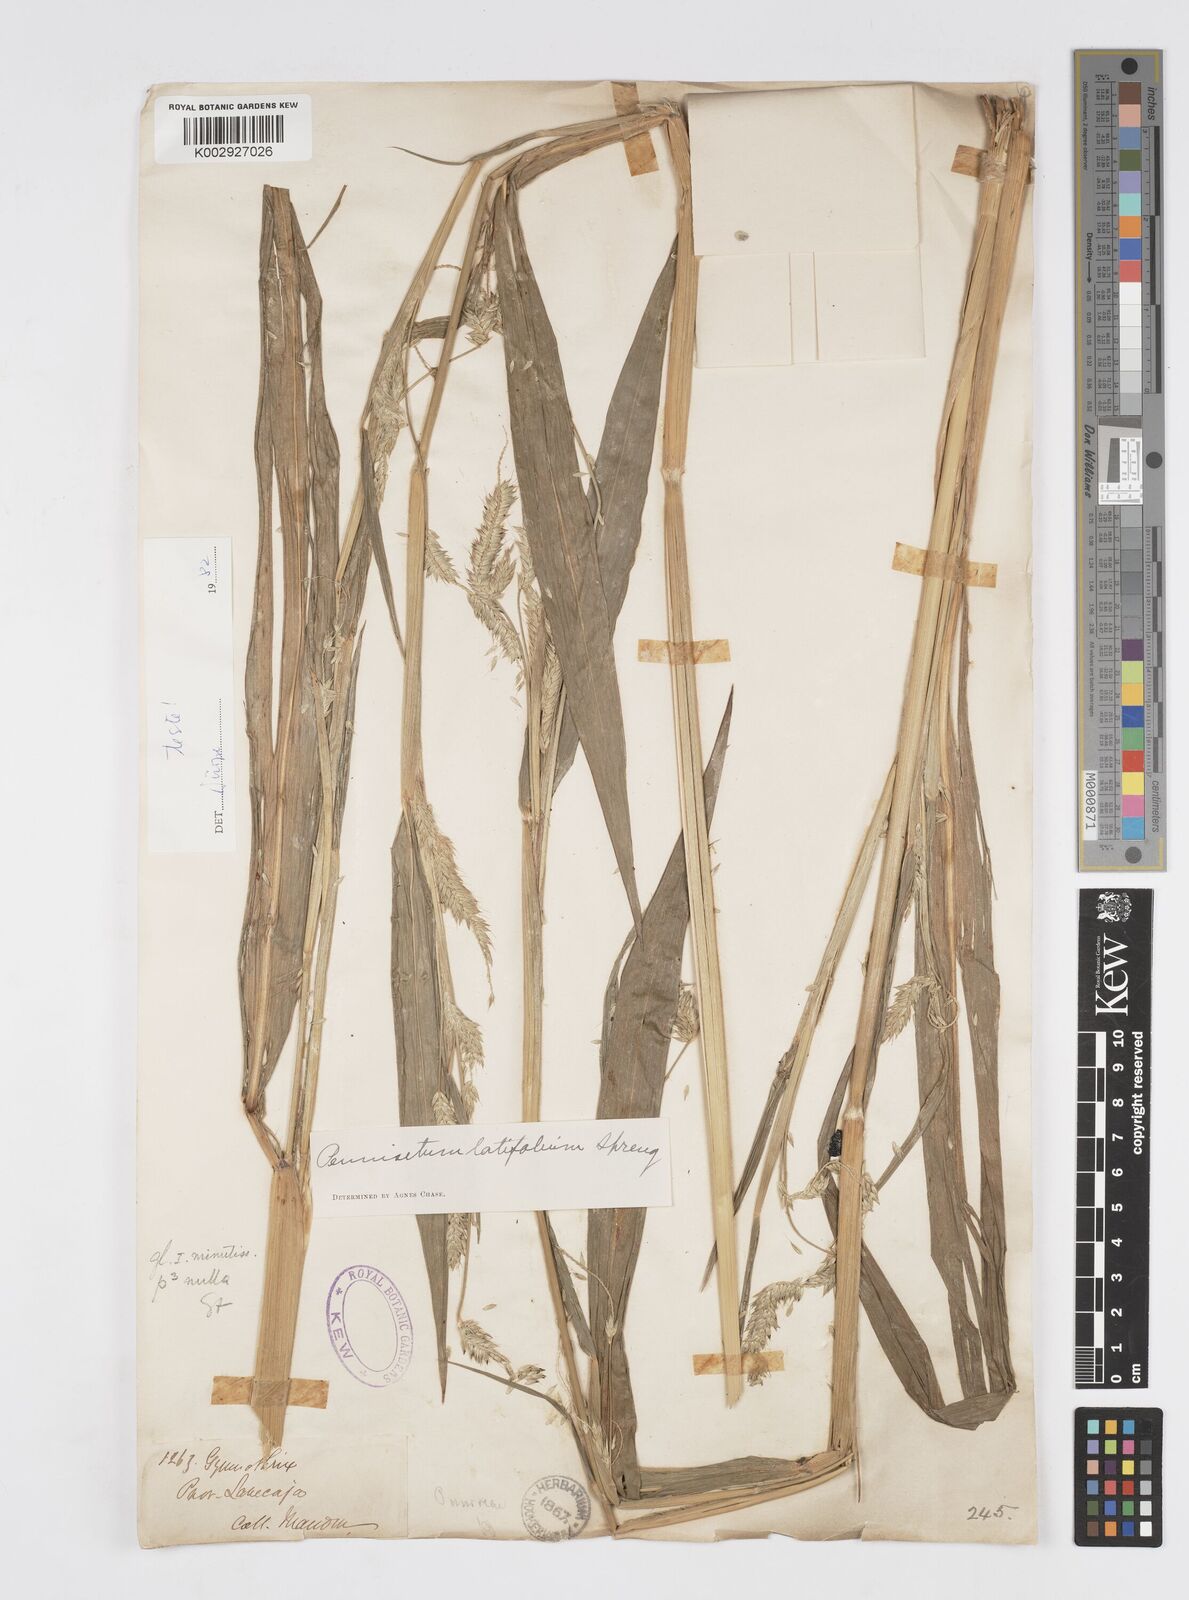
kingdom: Plantae
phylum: Tracheophyta
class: Liliopsida
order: Poales
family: Poaceae
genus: Cenchrus
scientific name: Cenchrus latifolius
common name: Sandbur
